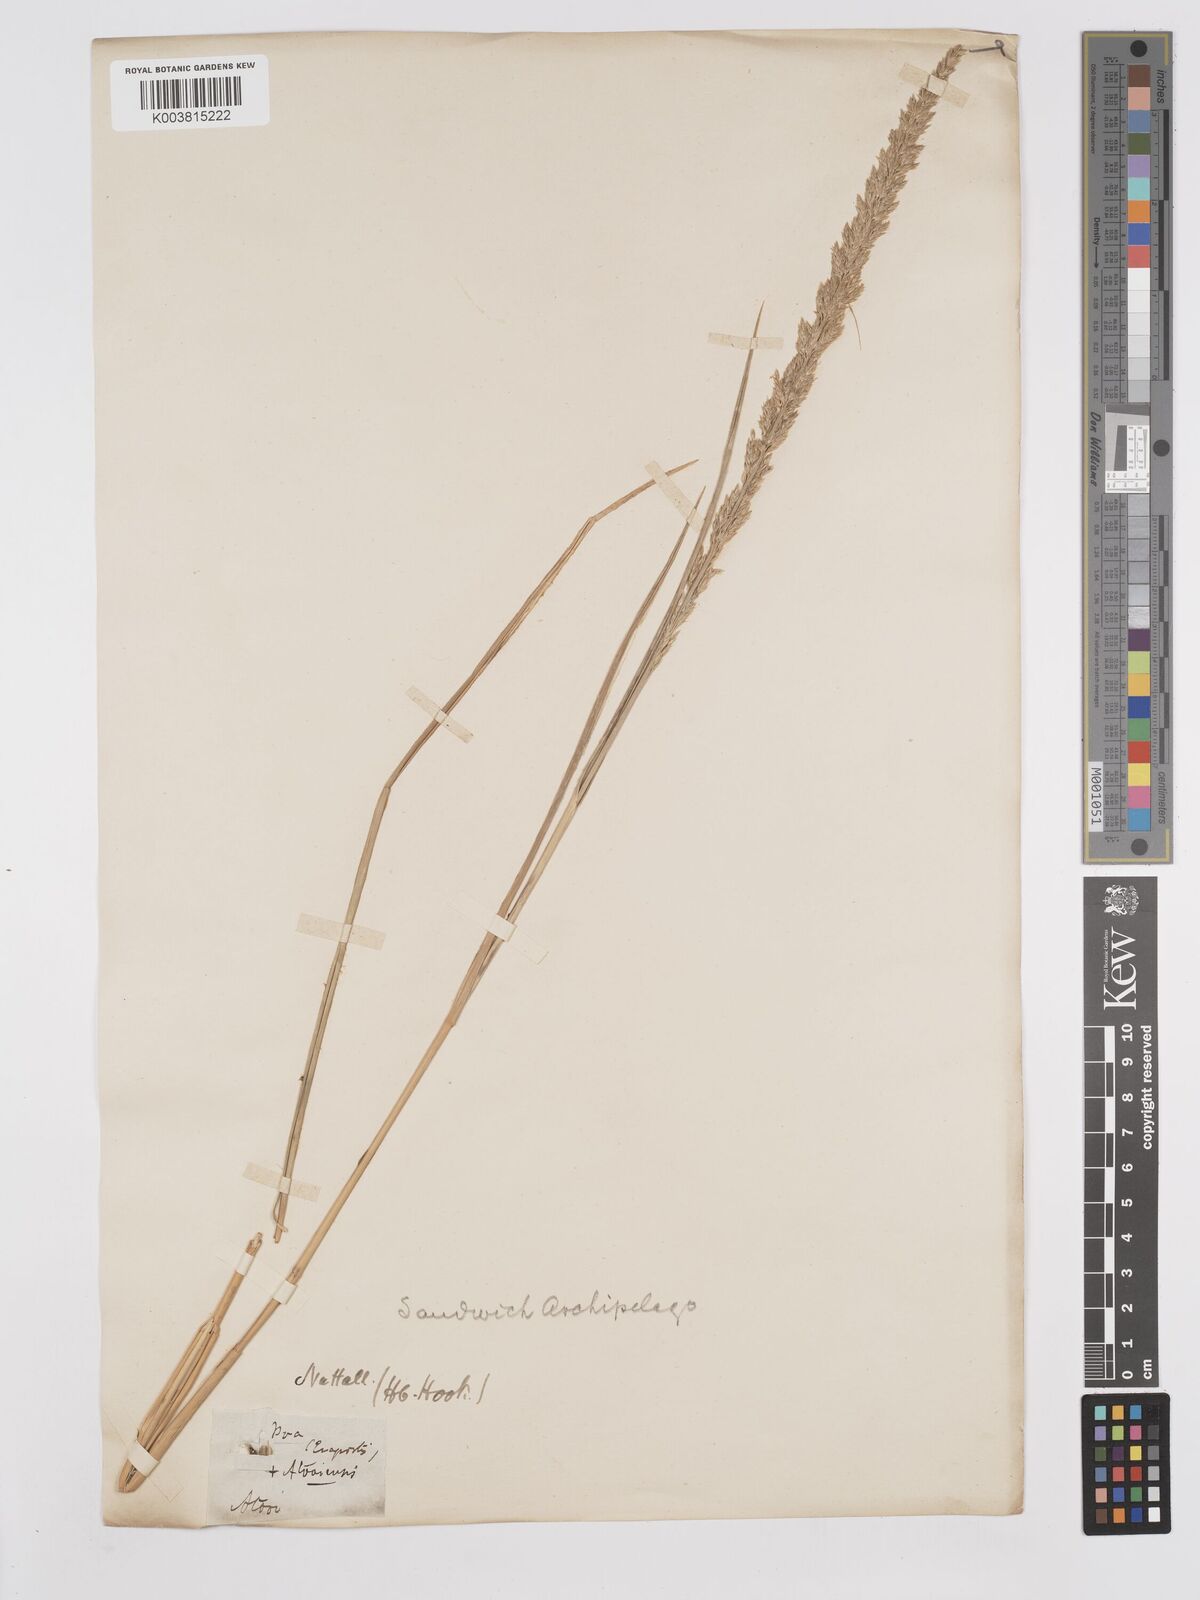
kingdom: Plantae
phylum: Tracheophyta
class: Liliopsida
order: Poales
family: Poaceae
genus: Eragrostis
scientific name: Eragrostis variabilis
